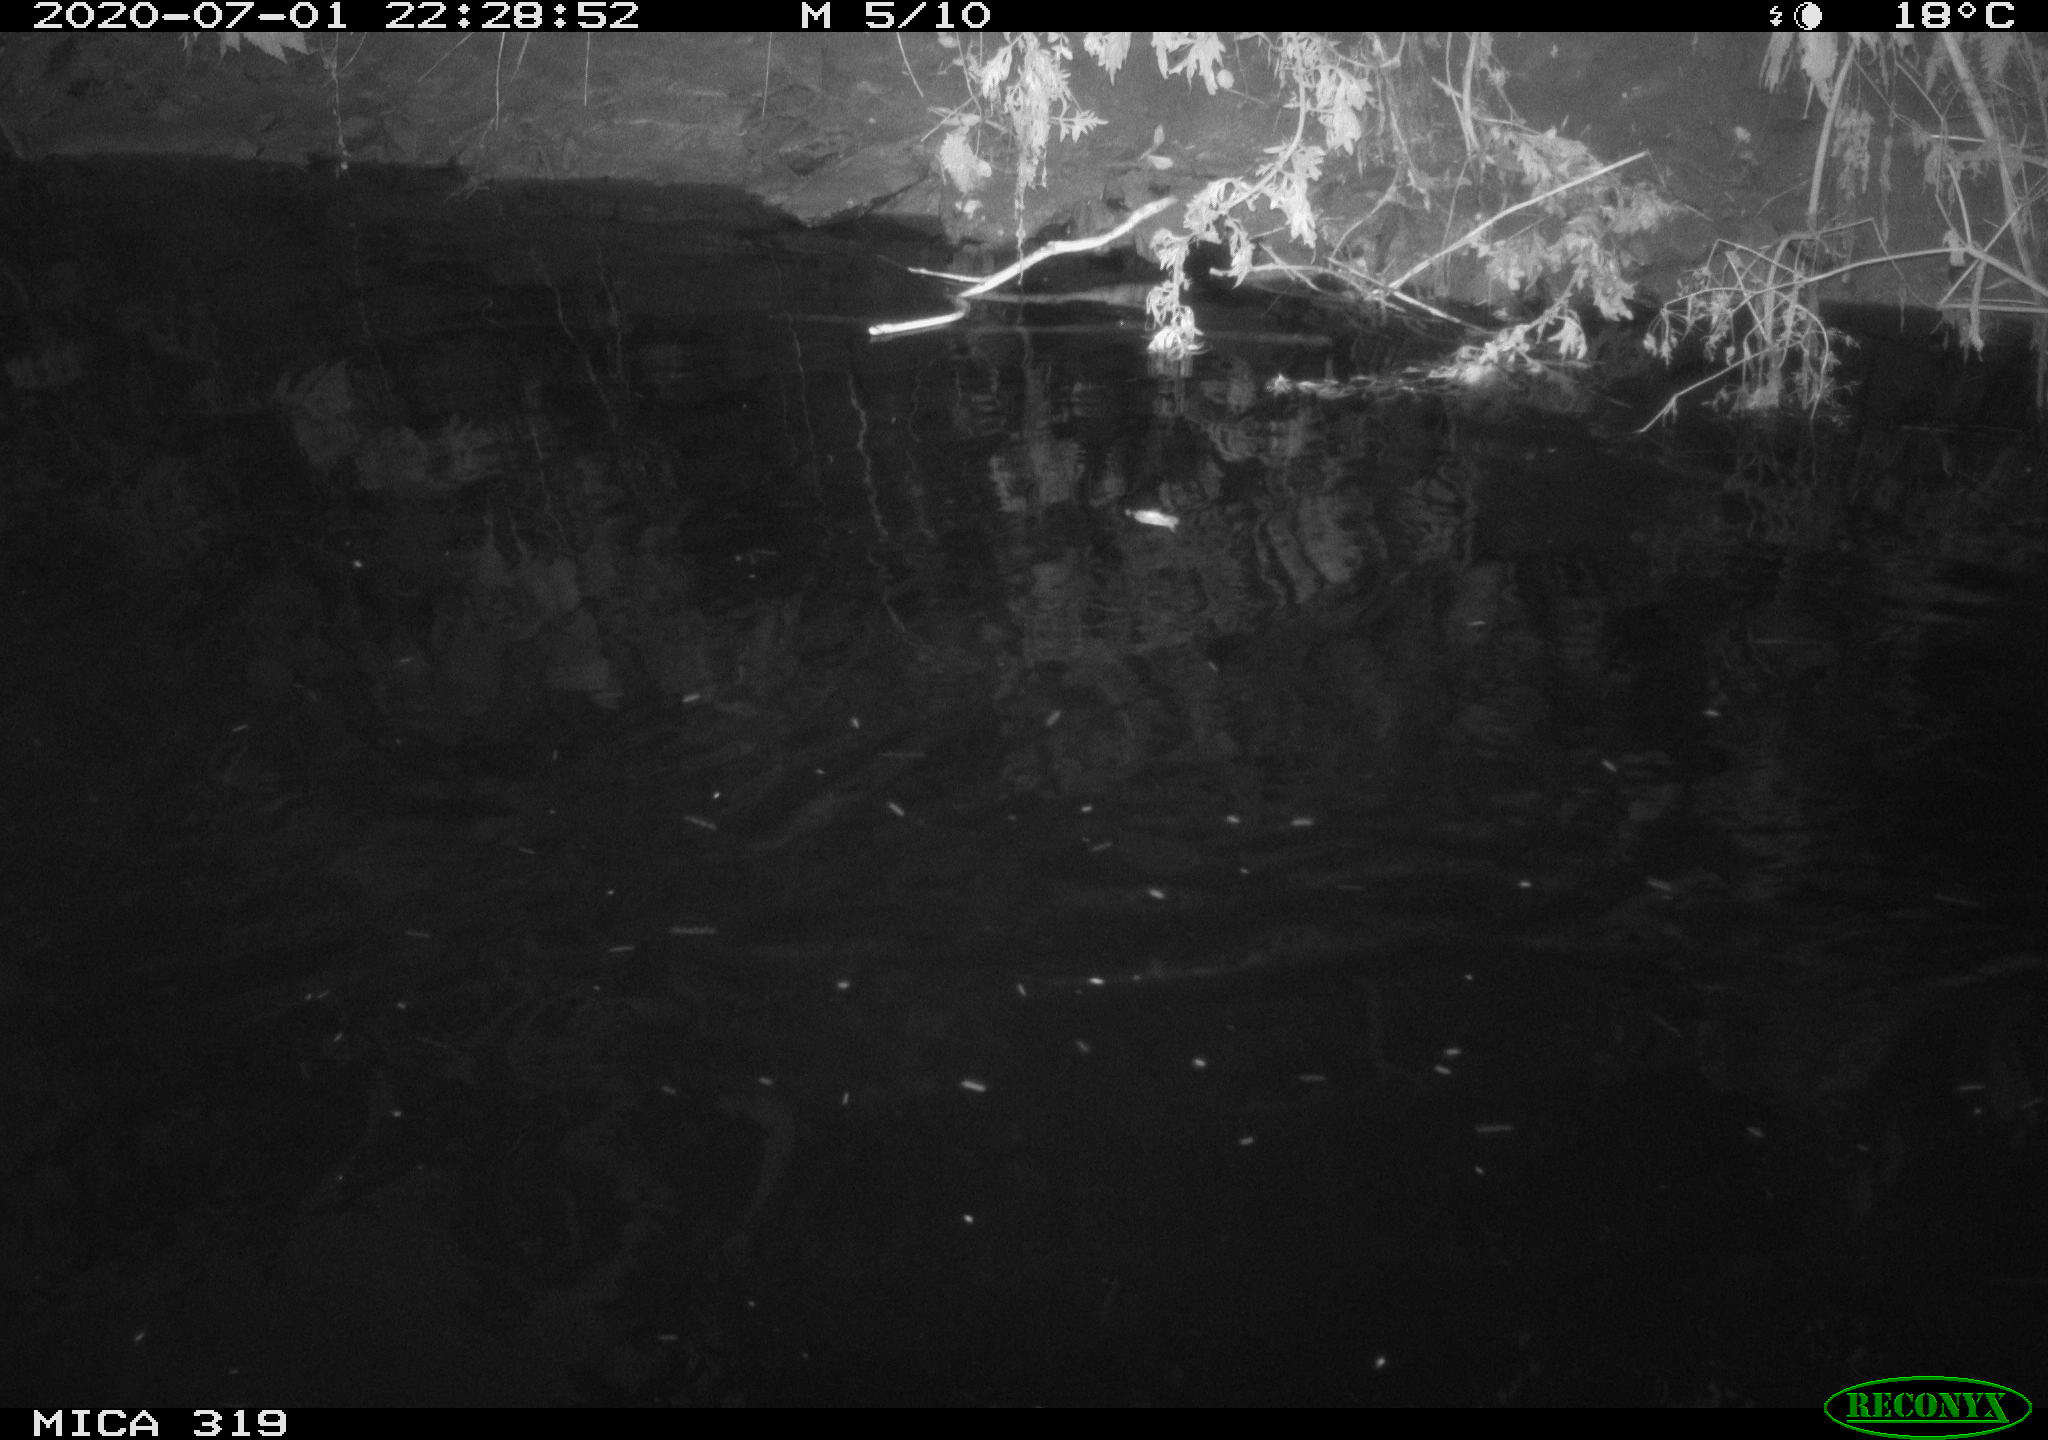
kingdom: Animalia
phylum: Chordata
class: Aves
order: Anseriformes
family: Anatidae
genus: Anas
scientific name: Anas platyrhynchos
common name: Mallard
